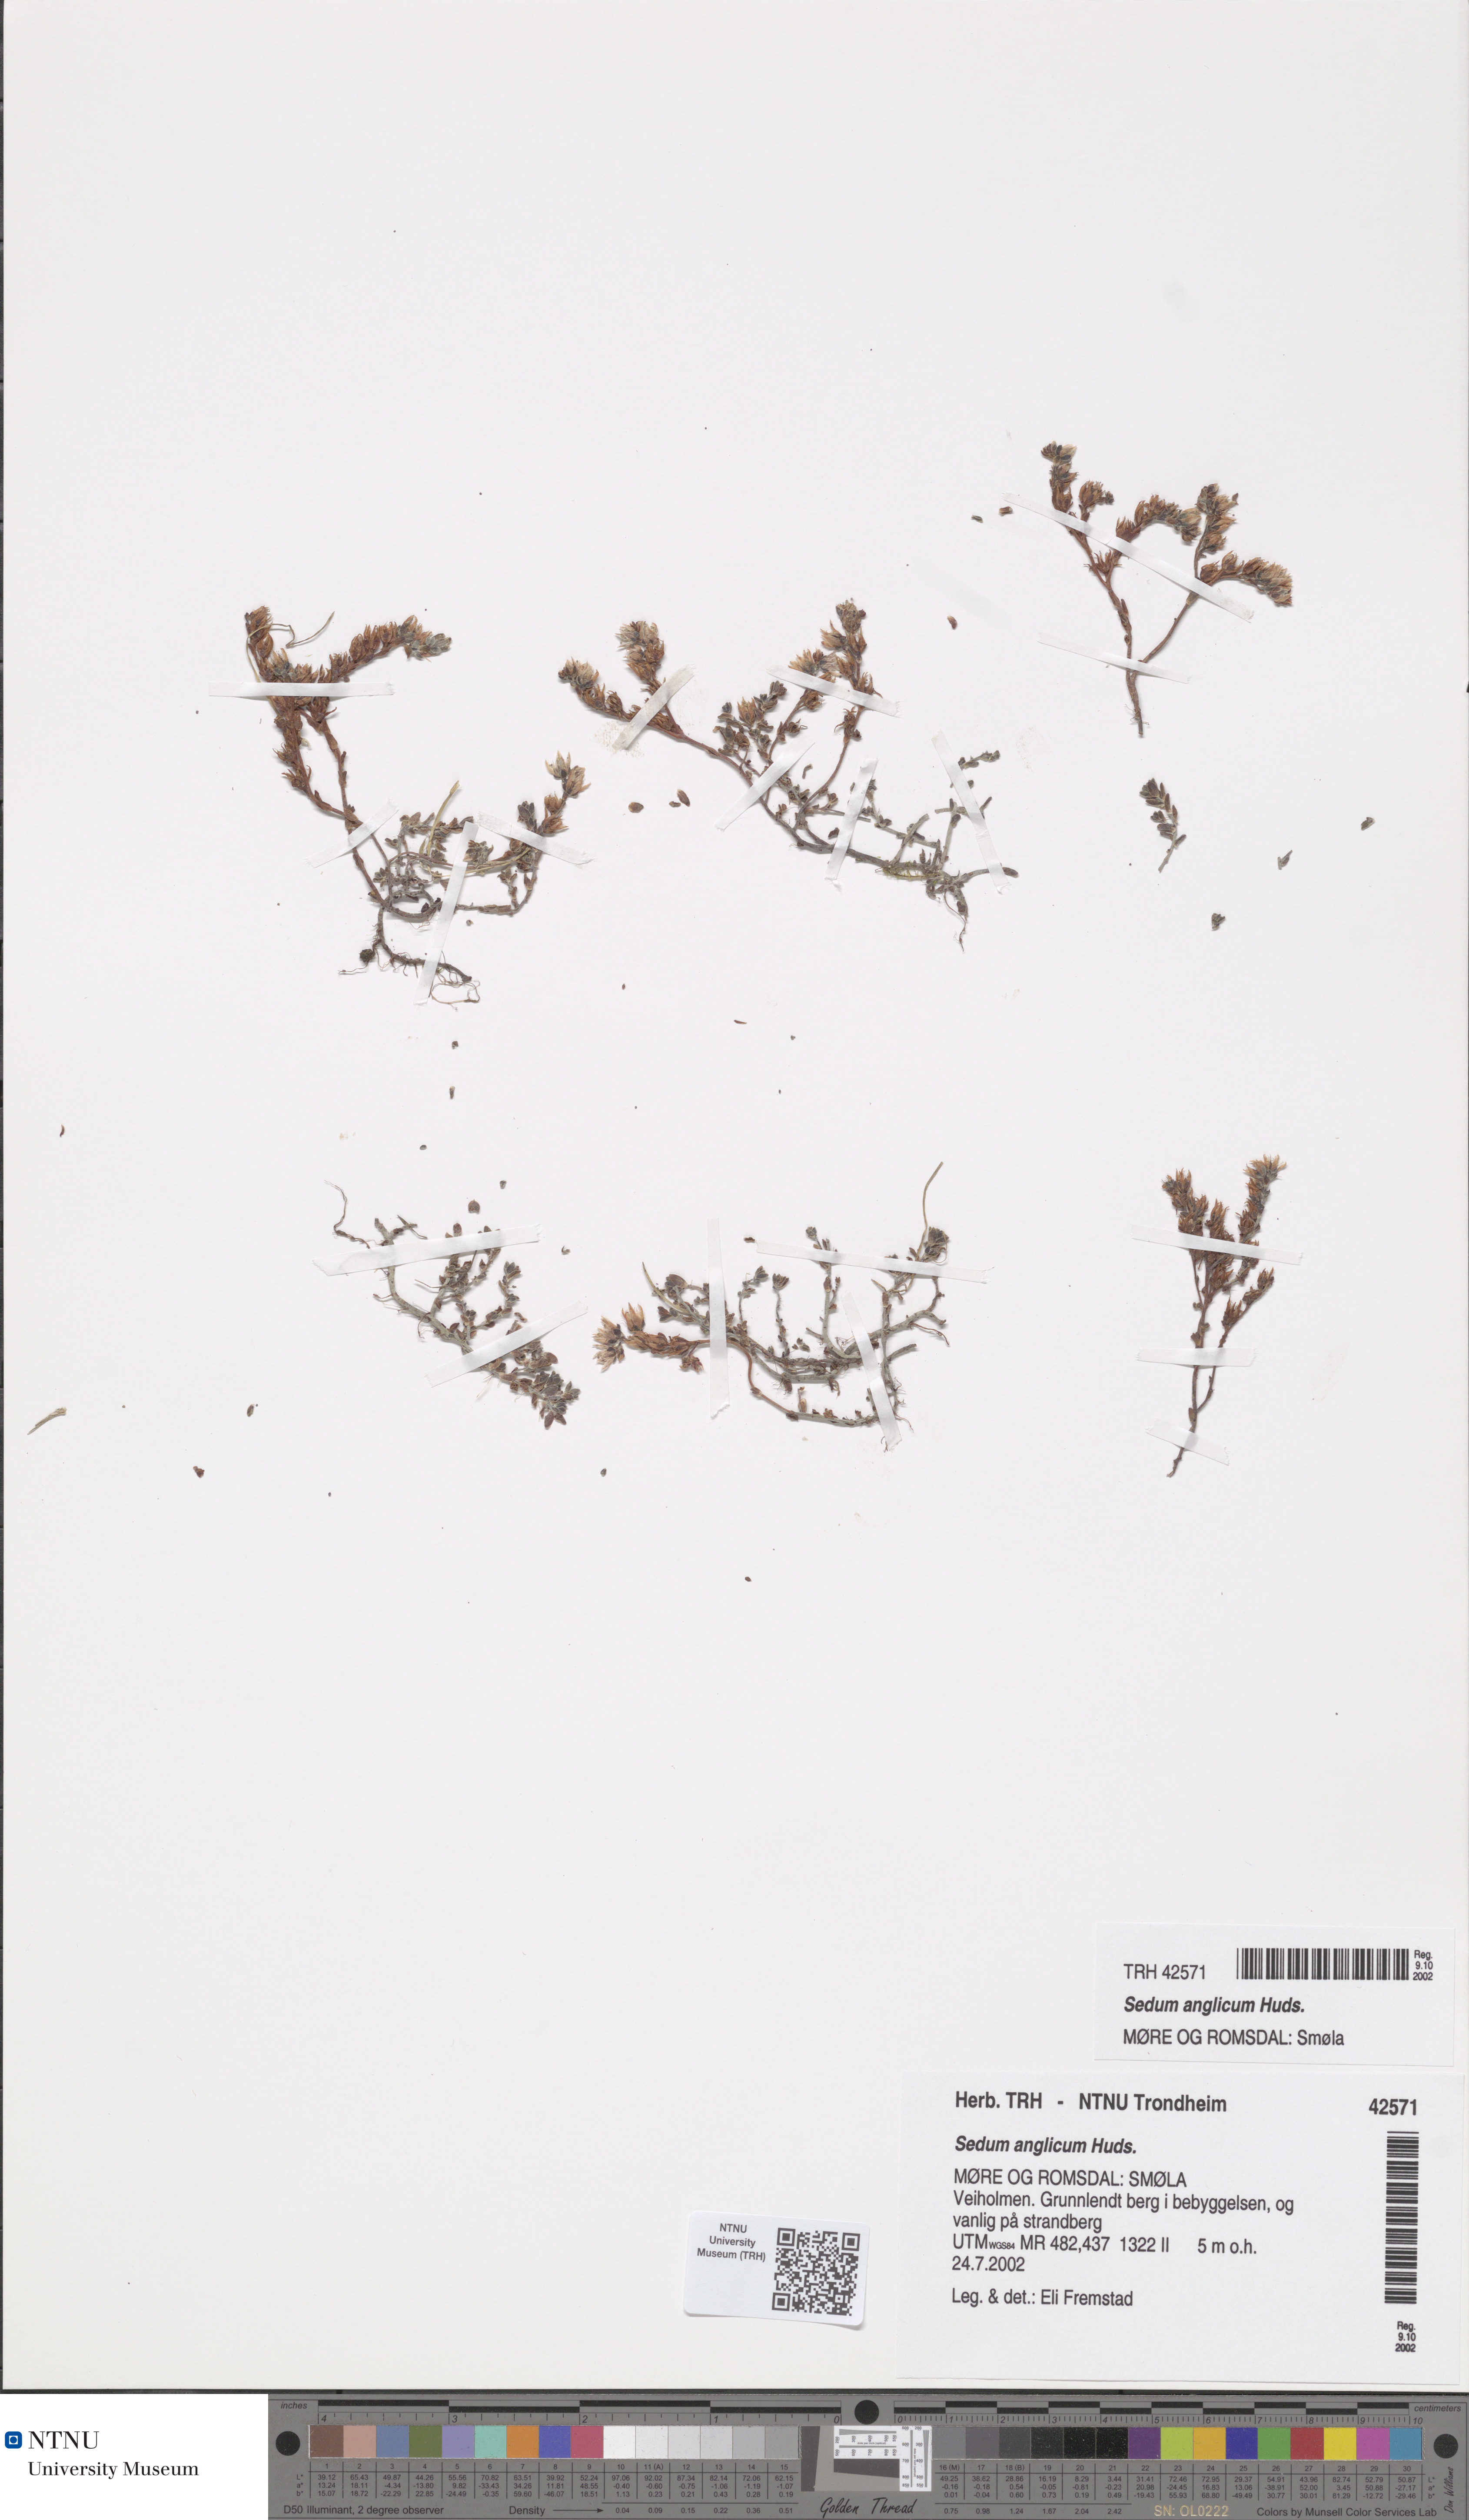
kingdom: Plantae
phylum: Tracheophyta
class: Magnoliopsida
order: Saxifragales
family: Crassulaceae
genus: Sedum
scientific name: Sedum anglicum
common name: English stonecrop
